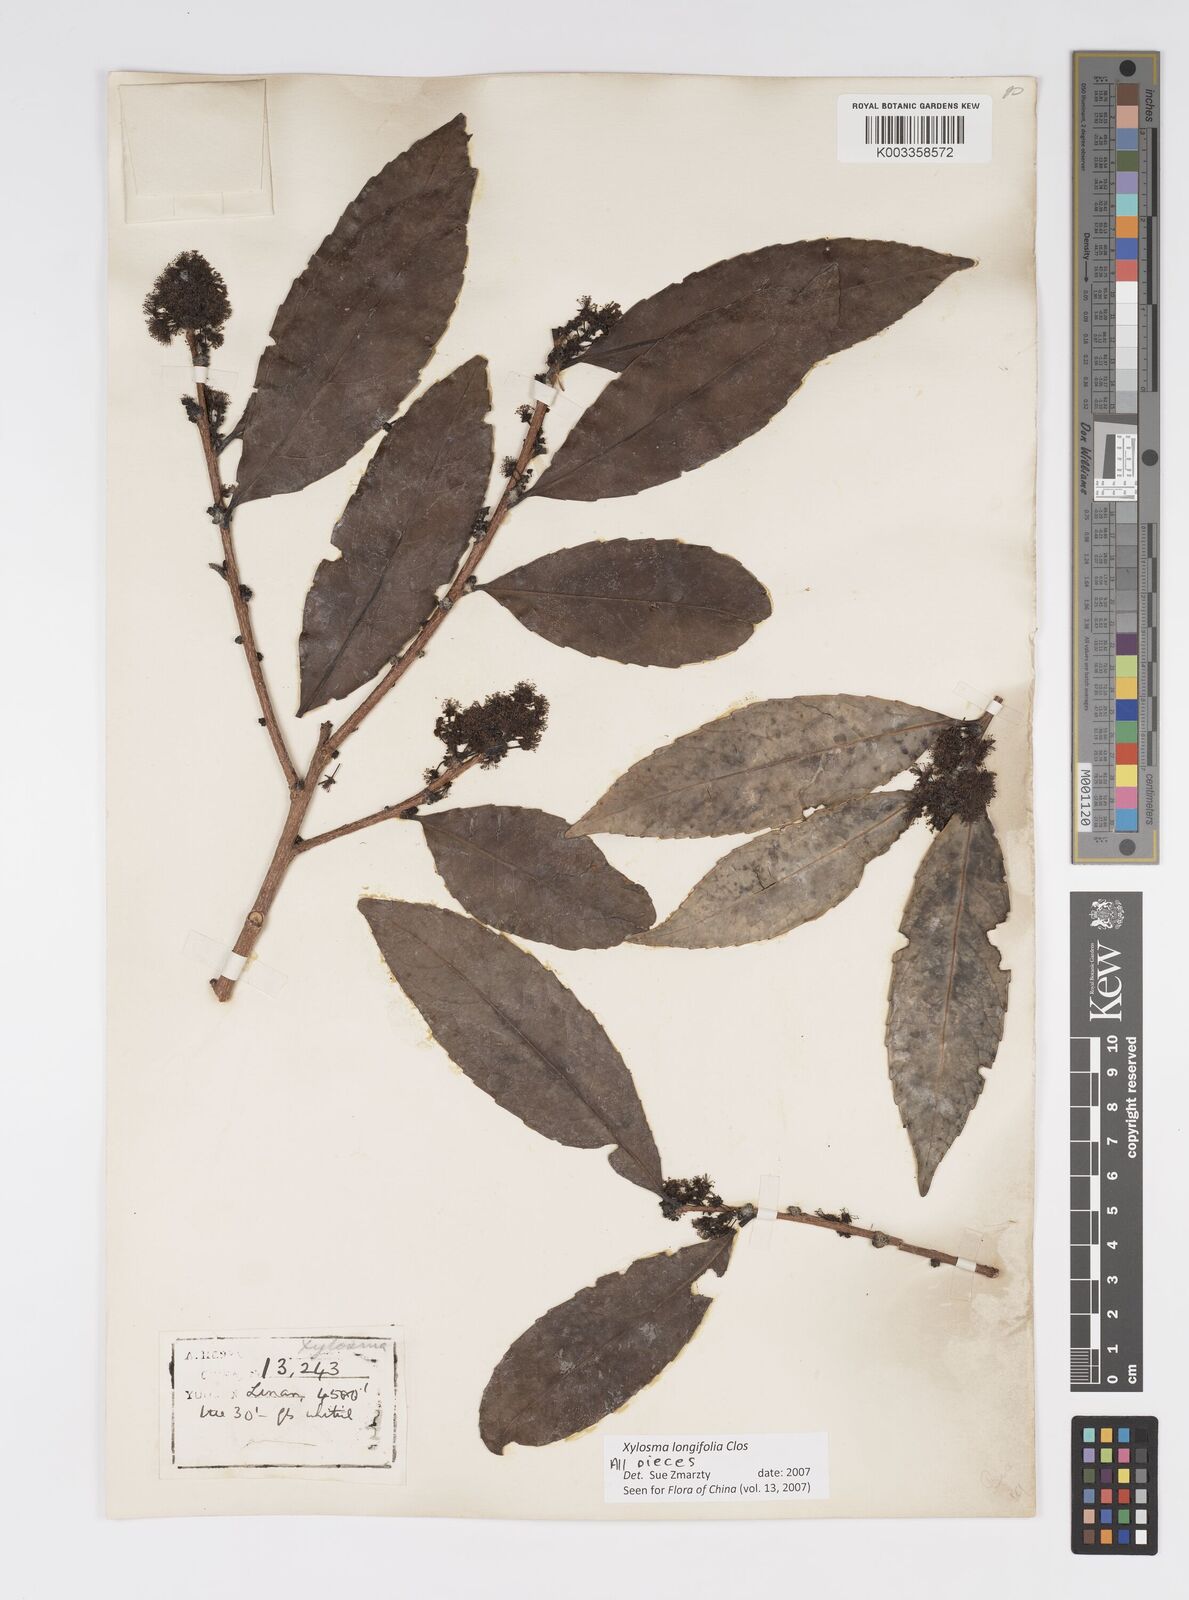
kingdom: Plantae
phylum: Tracheophyta
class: Magnoliopsida
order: Malpighiales
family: Salicaceae
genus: Xylosma
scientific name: Xylosma longifolia
